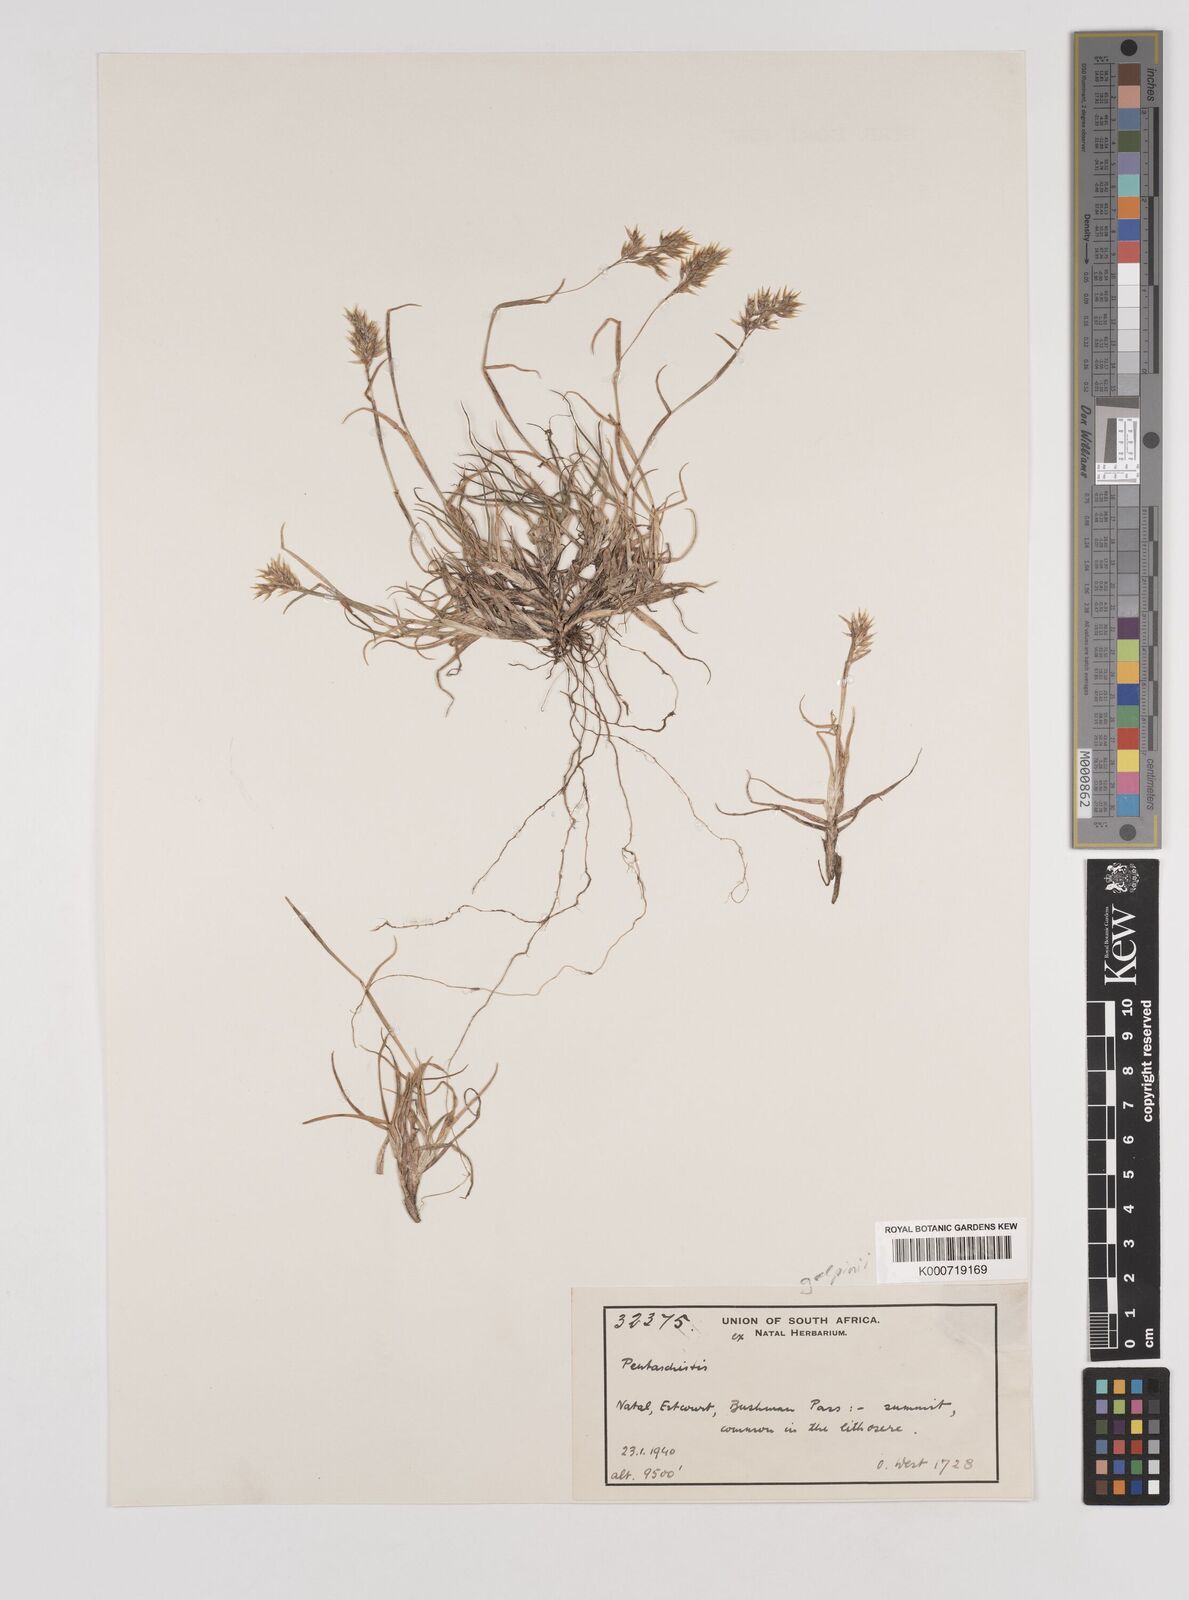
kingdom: Plantae
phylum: Tracheophyta
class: Liliopsida
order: Poales
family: Poaceae
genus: Pentameris
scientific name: Pentameris galpinii
